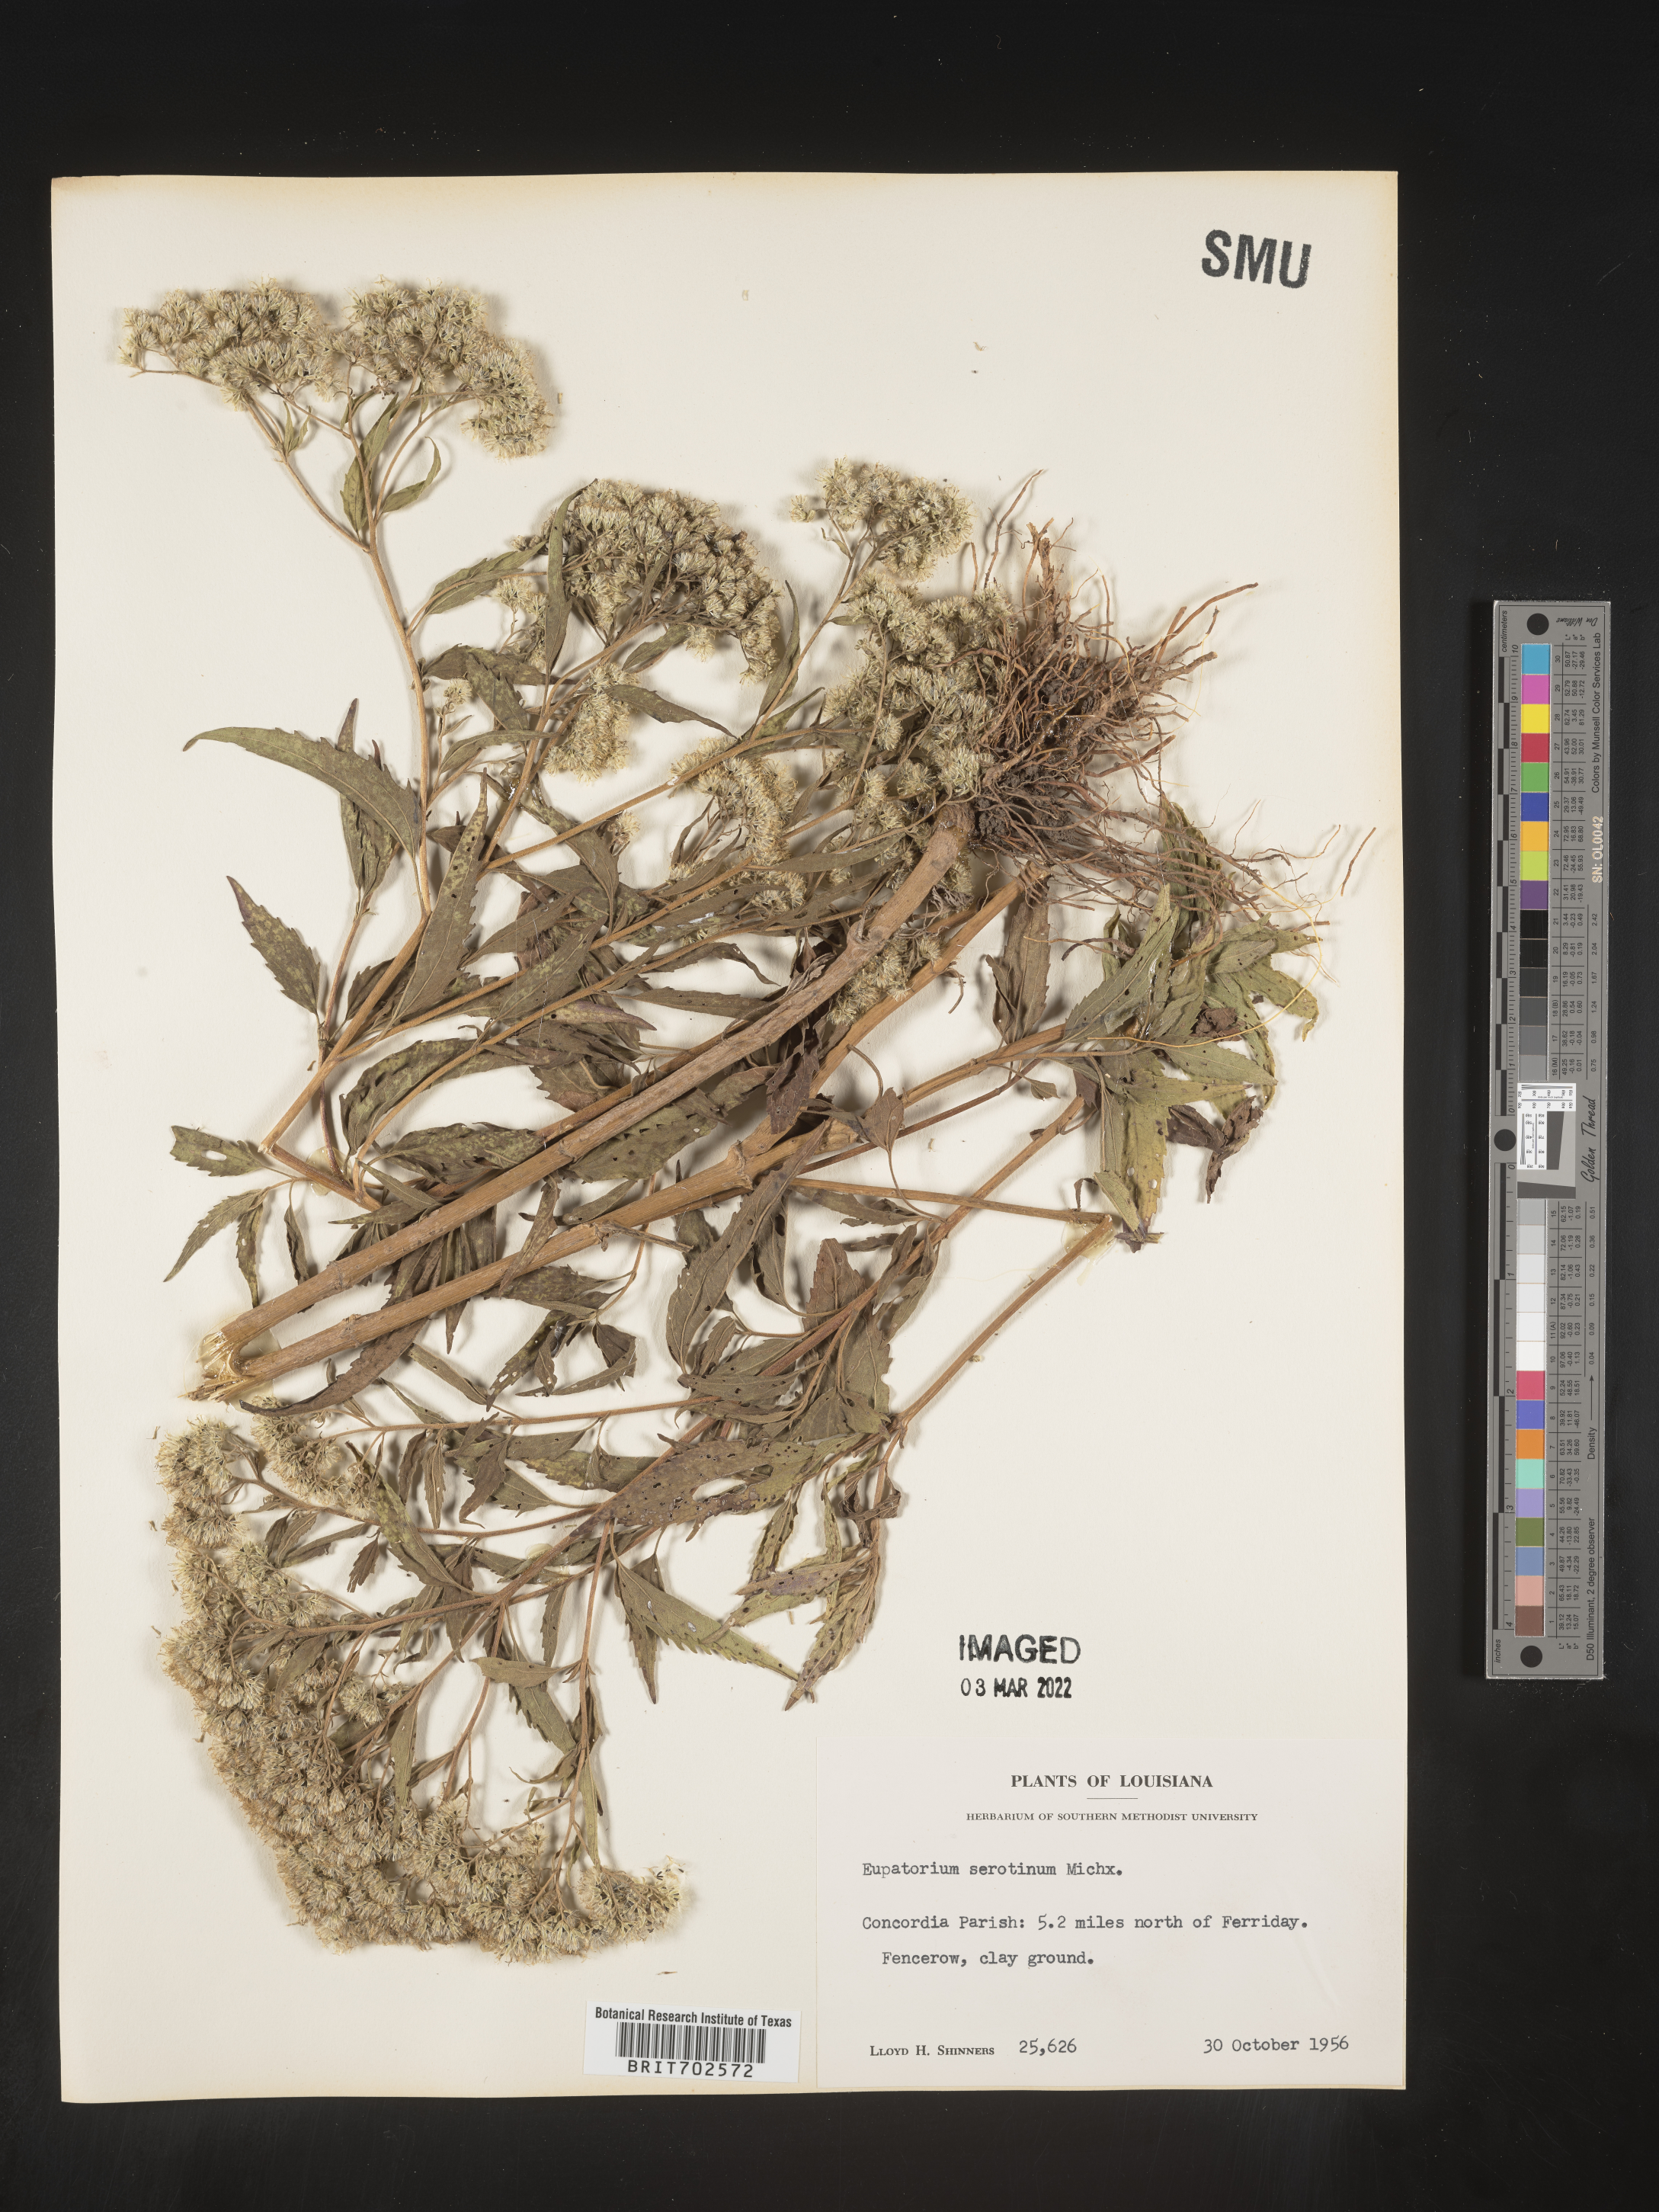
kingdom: Plantae
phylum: Tracheophyta
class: Magnoliopsida
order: Asterales
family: Asteraceae
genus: Eupatorium
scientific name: Eupatorium serotinum
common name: Late boneset
